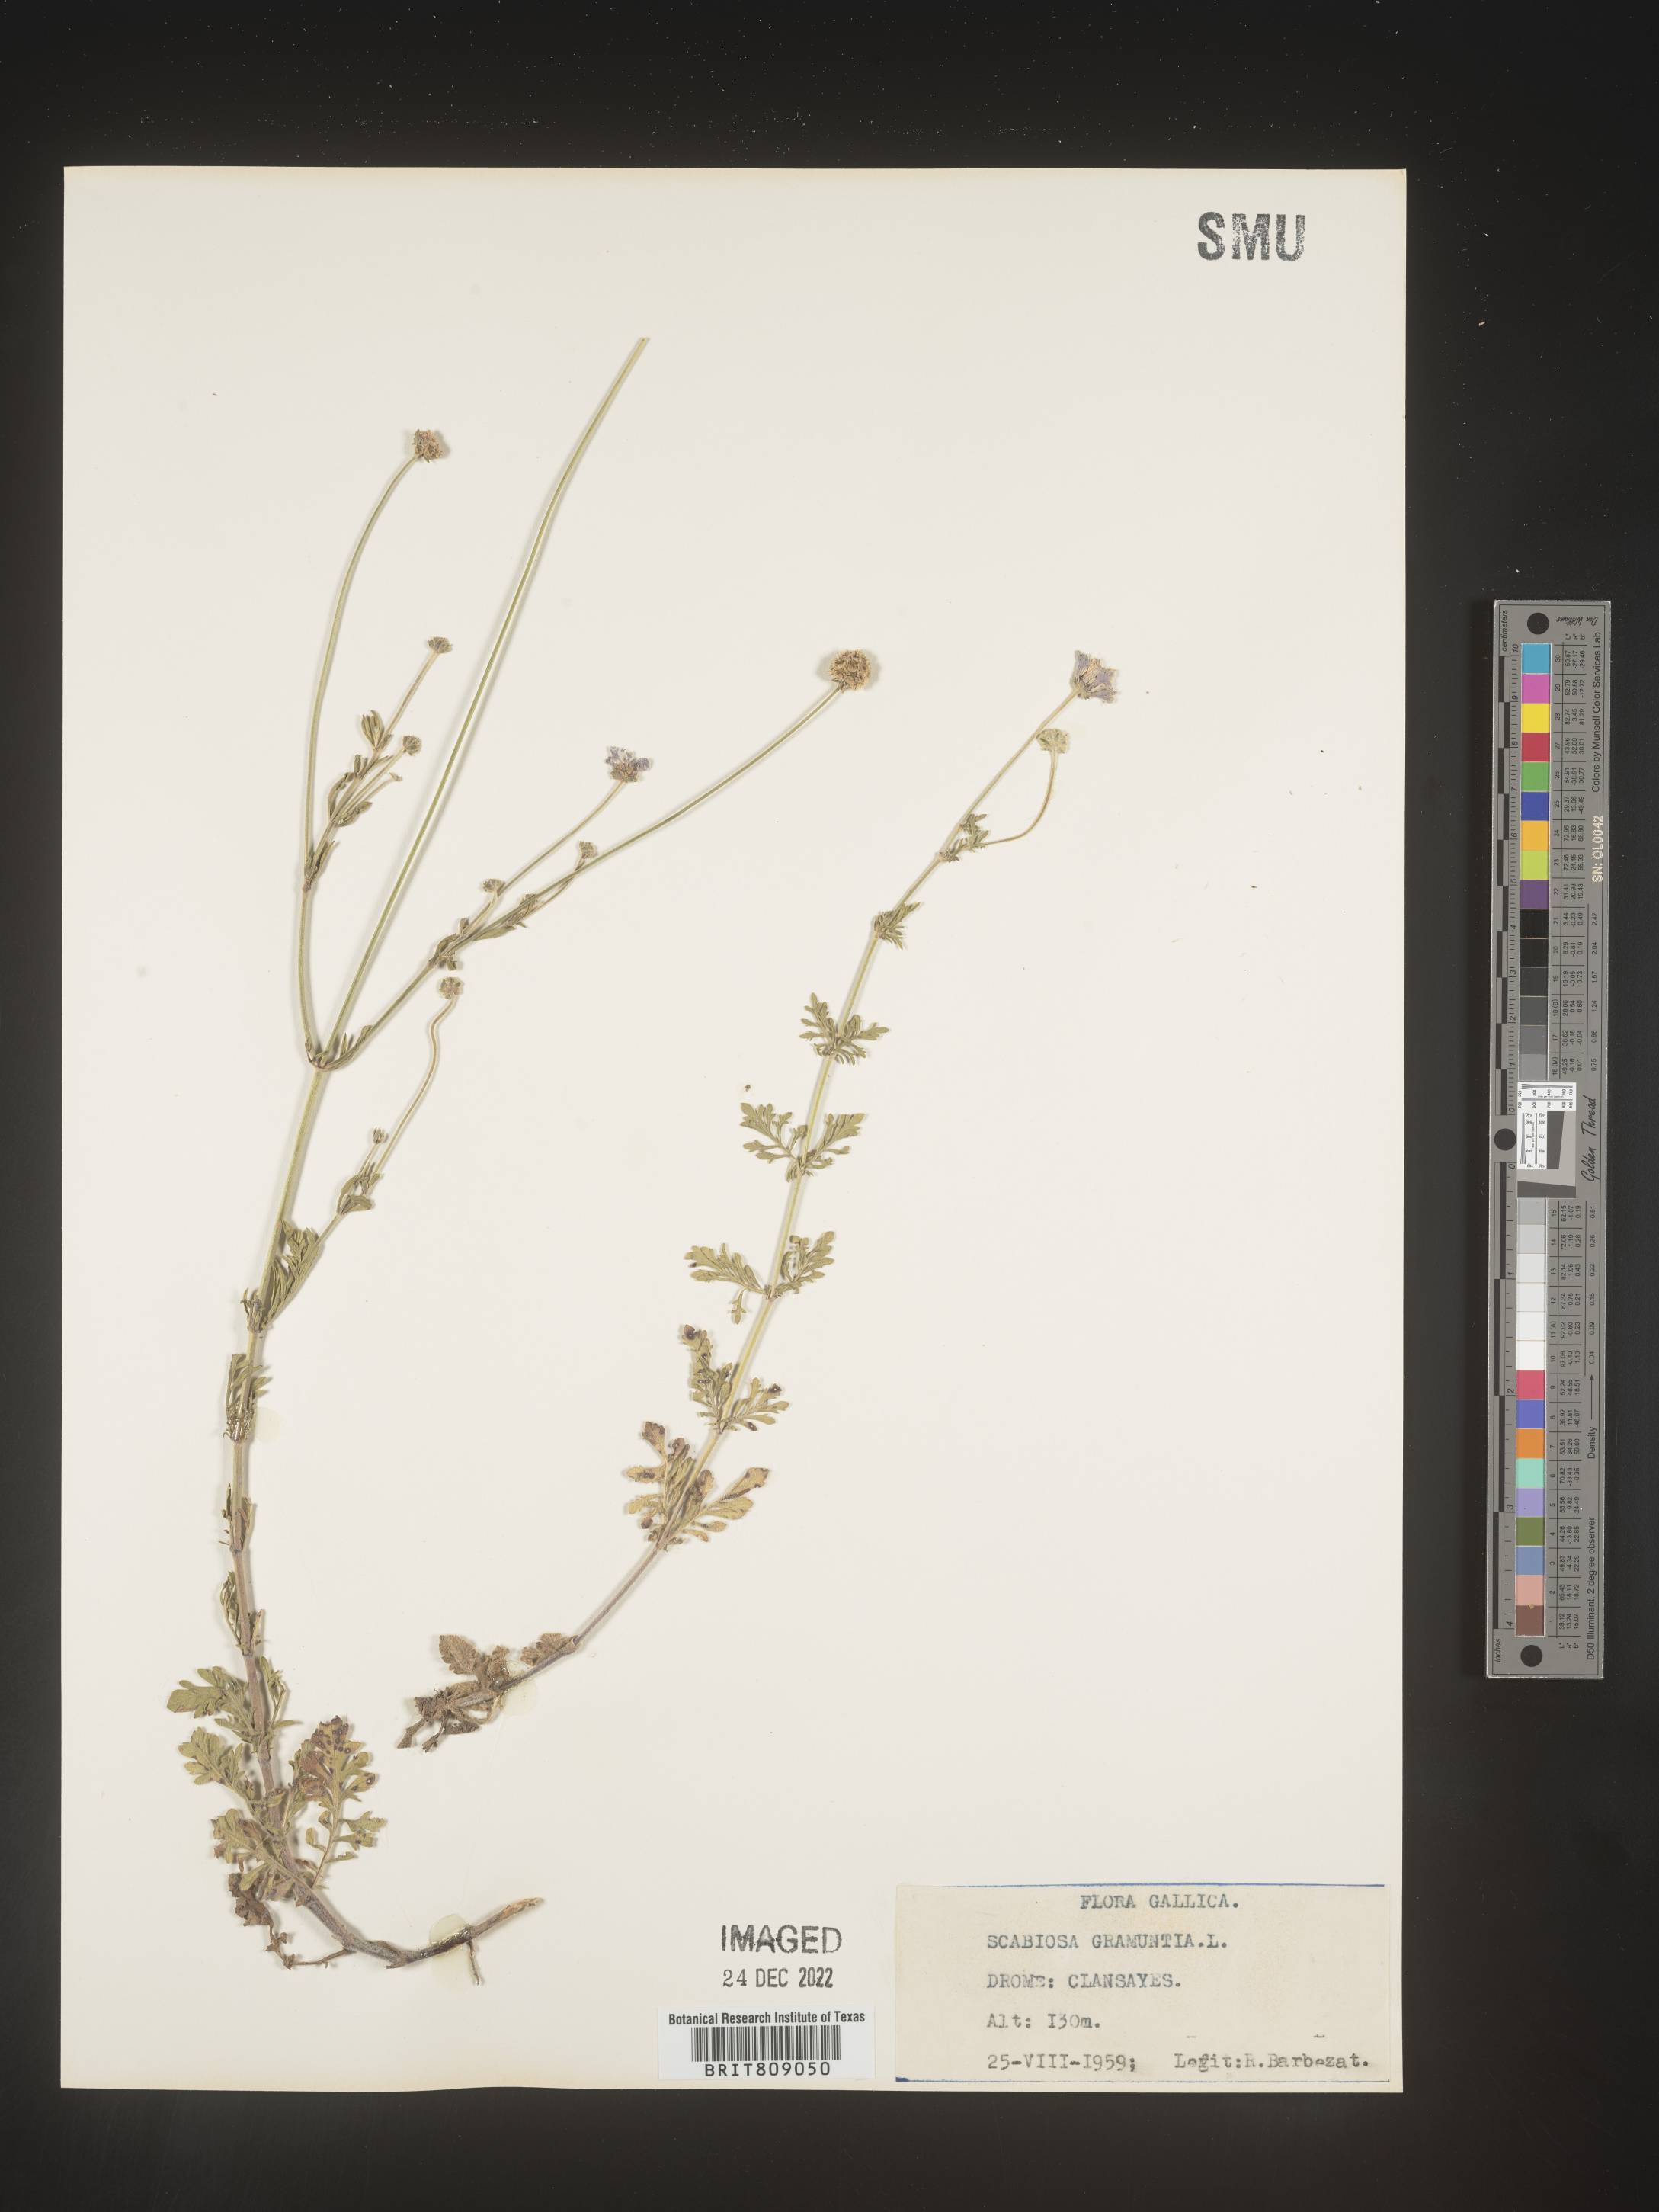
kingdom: Plantae
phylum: Tracheophyta
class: Magnoliopsida
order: Dipsacales
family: Caprifoliaceae
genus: Scabiosa
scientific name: Scabiosa
